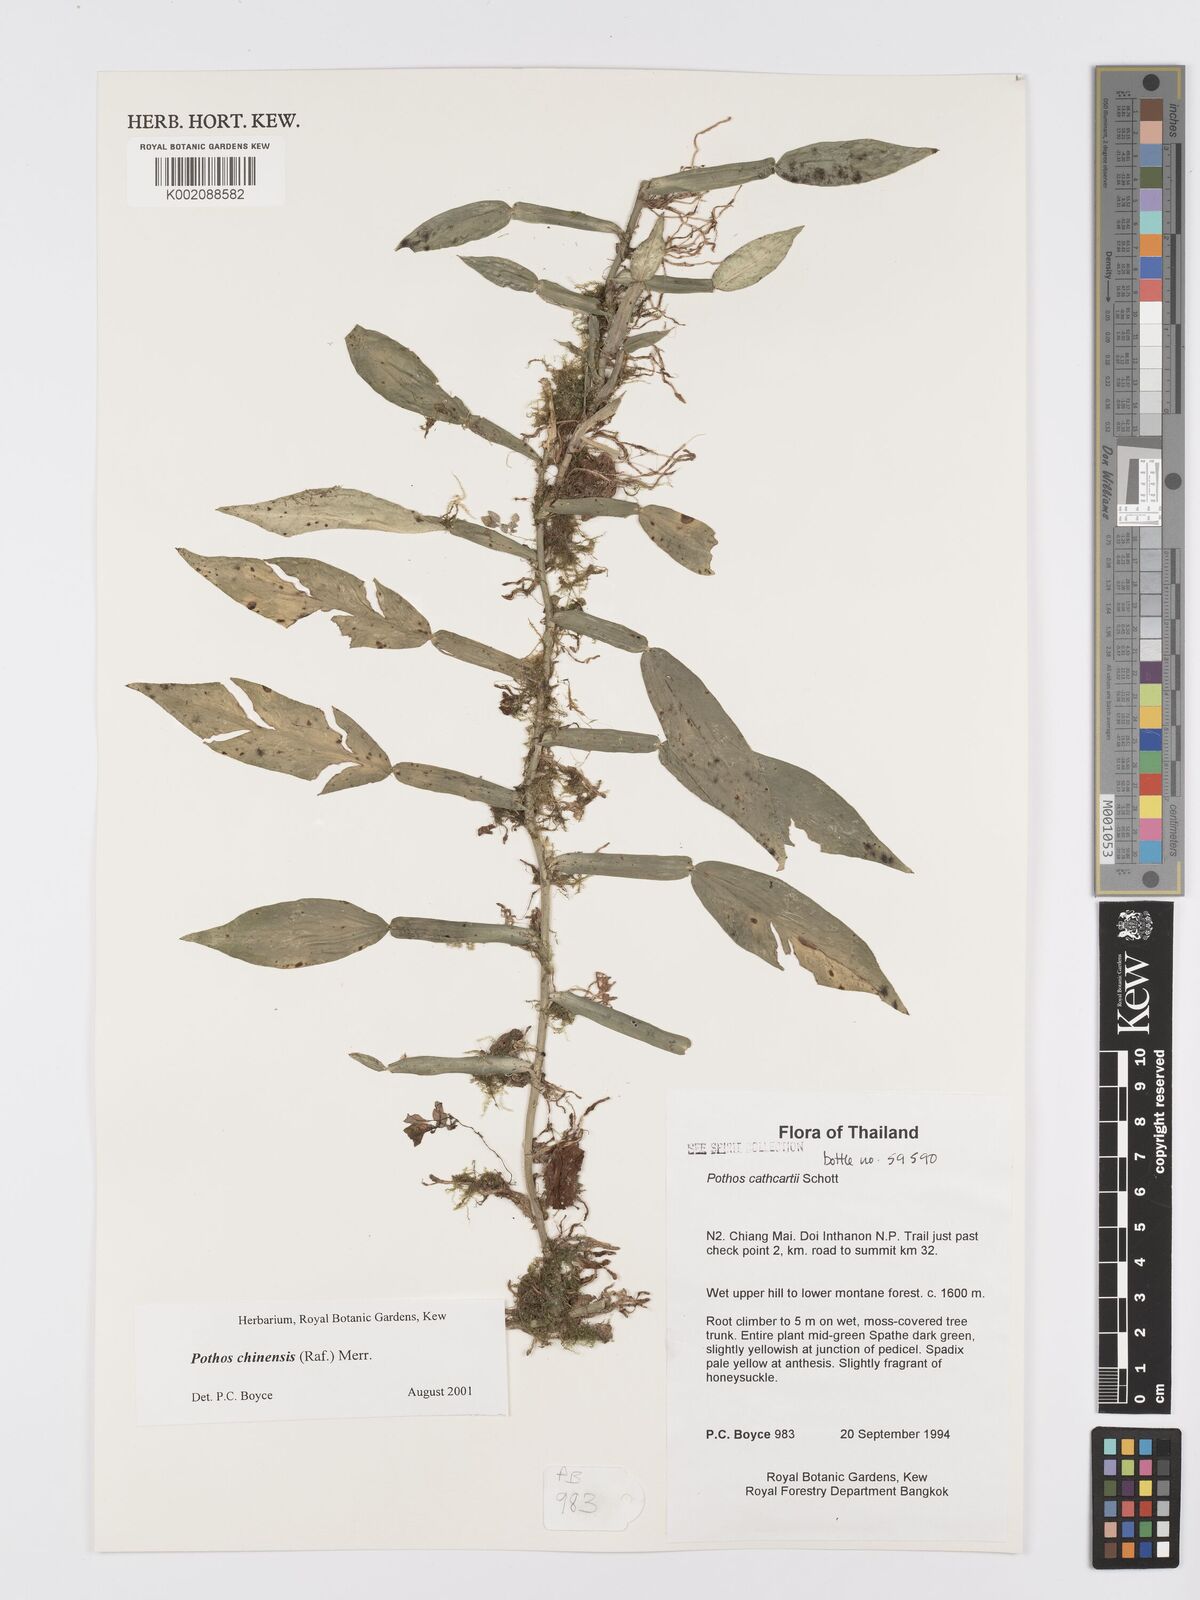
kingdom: Plantae
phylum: Tracheophyta
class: Liliopsida
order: Alismatales
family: Araceae
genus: Pothos
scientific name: Pothos chinensis
